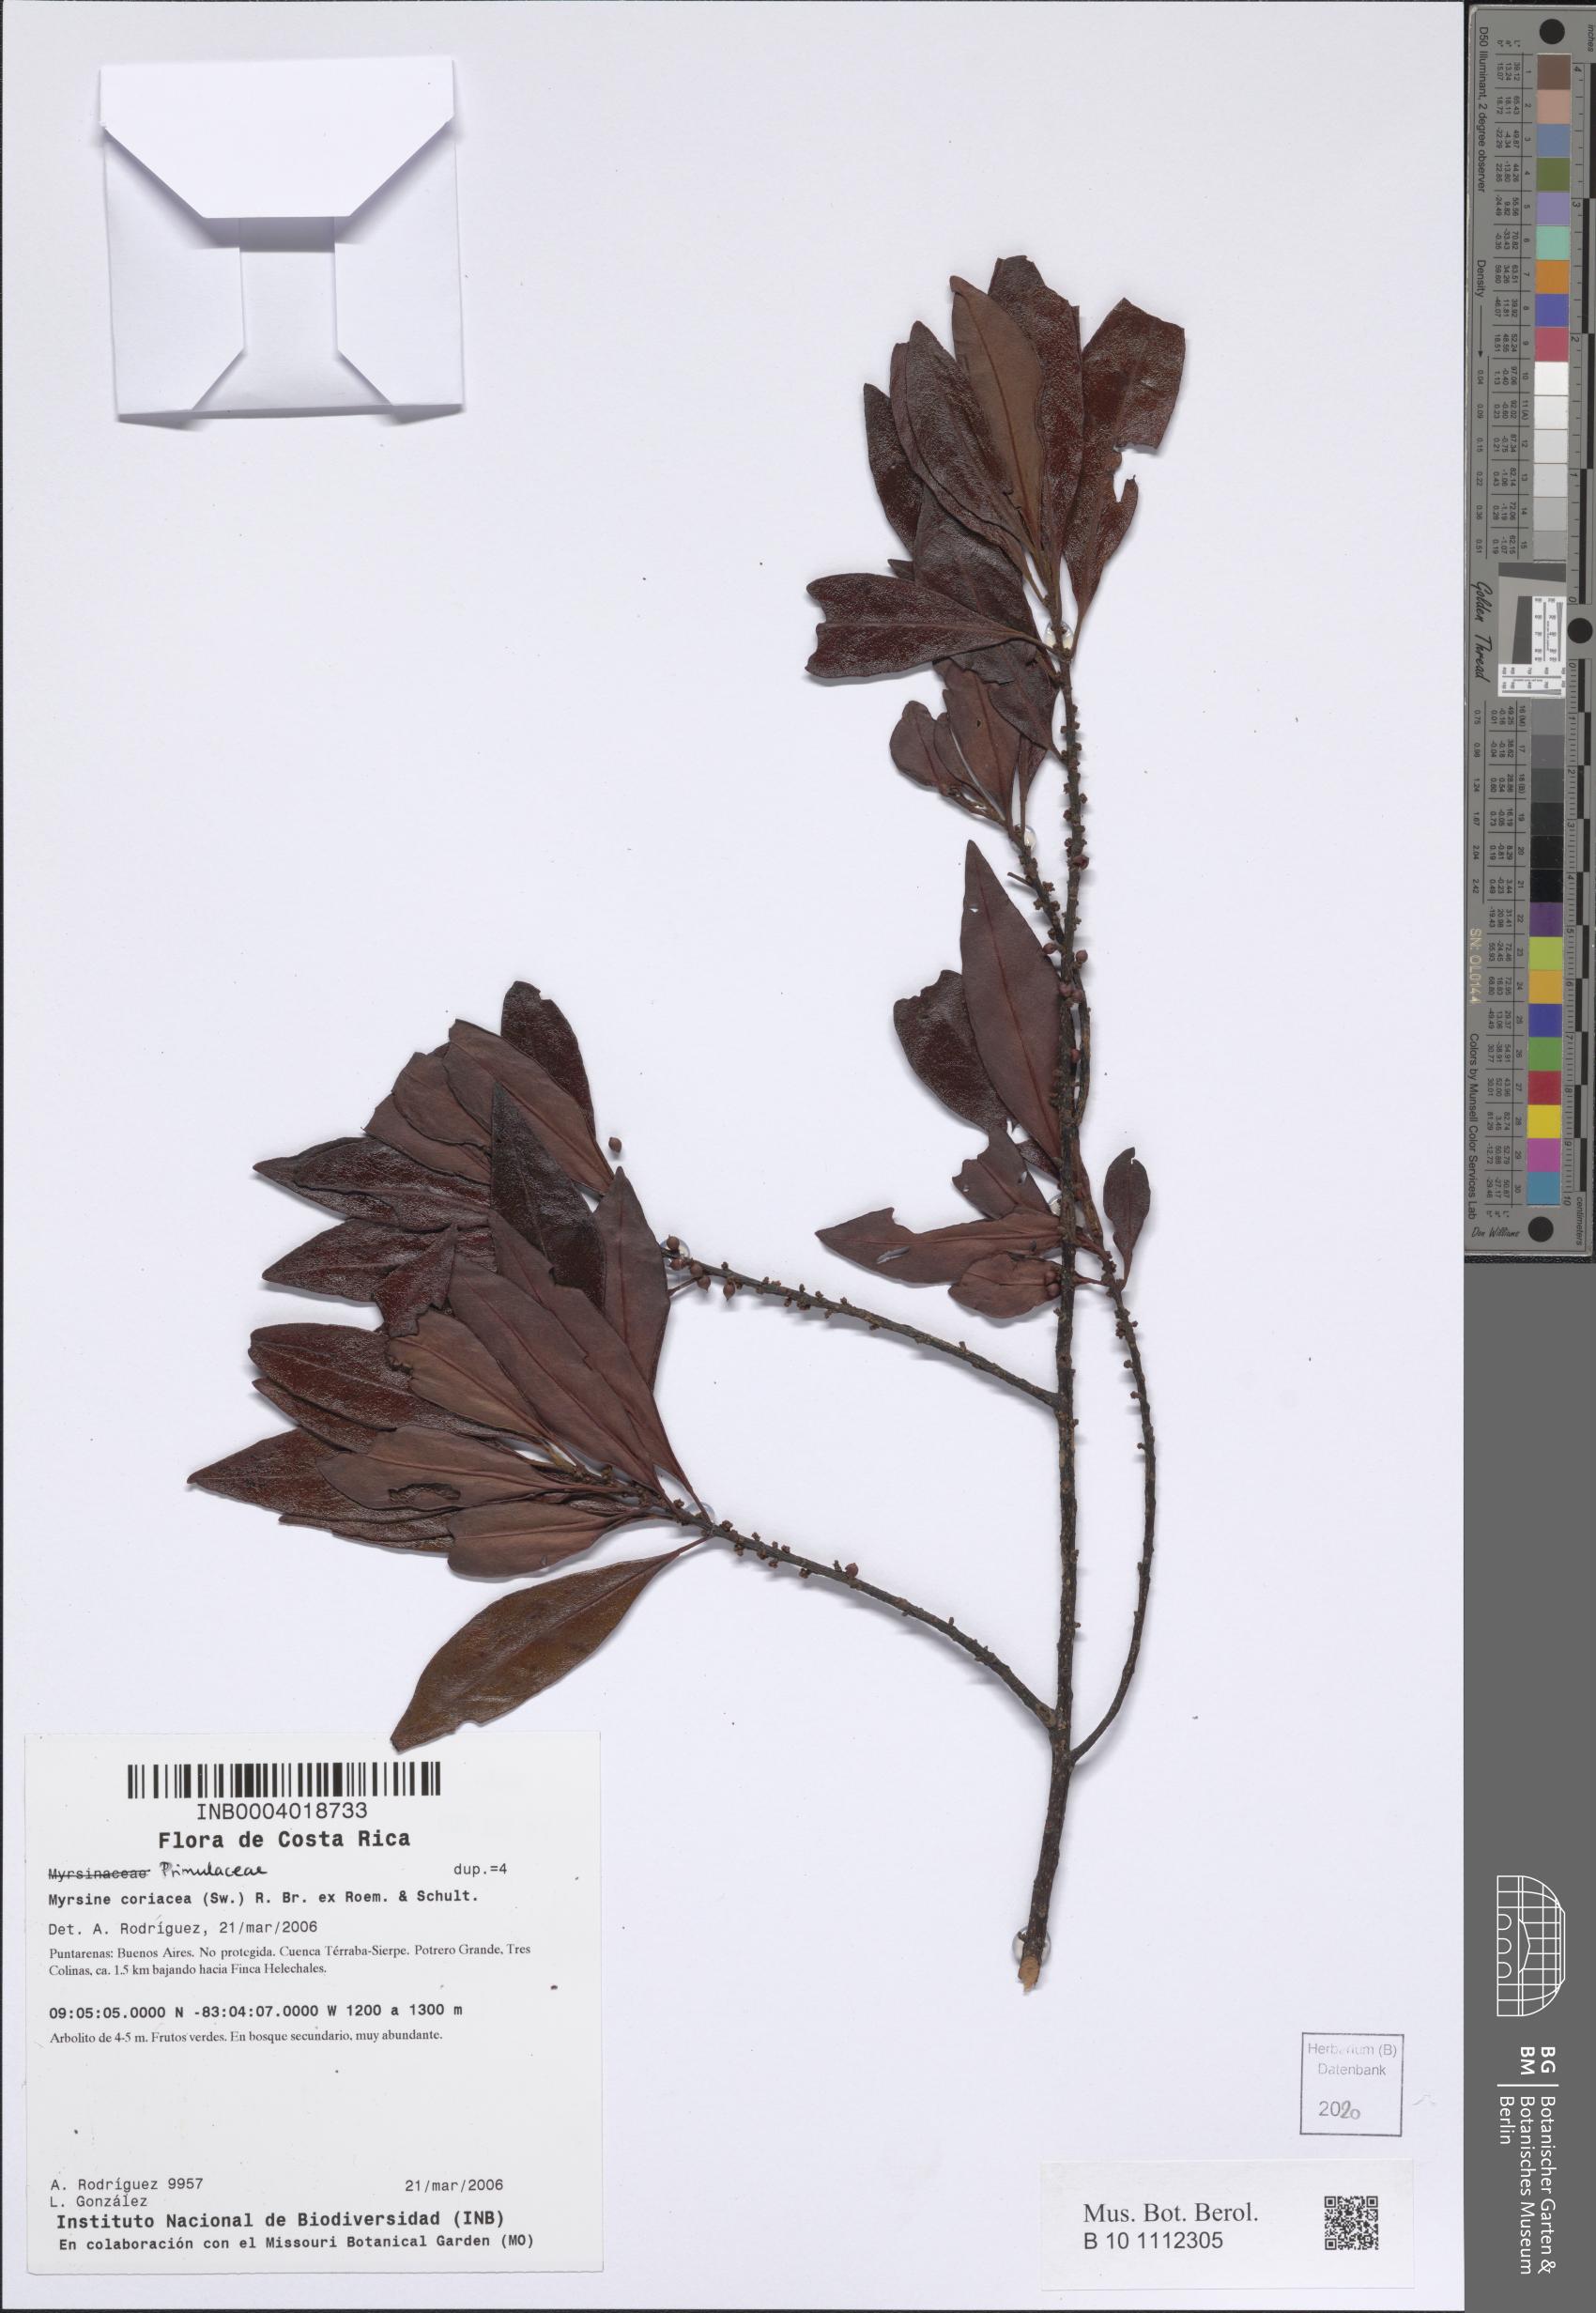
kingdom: Plantae
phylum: Tracheophyta
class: Magnoliopsida
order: Ericales
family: Primulaceae
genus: Myrsine
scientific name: Myrsine coriacea
